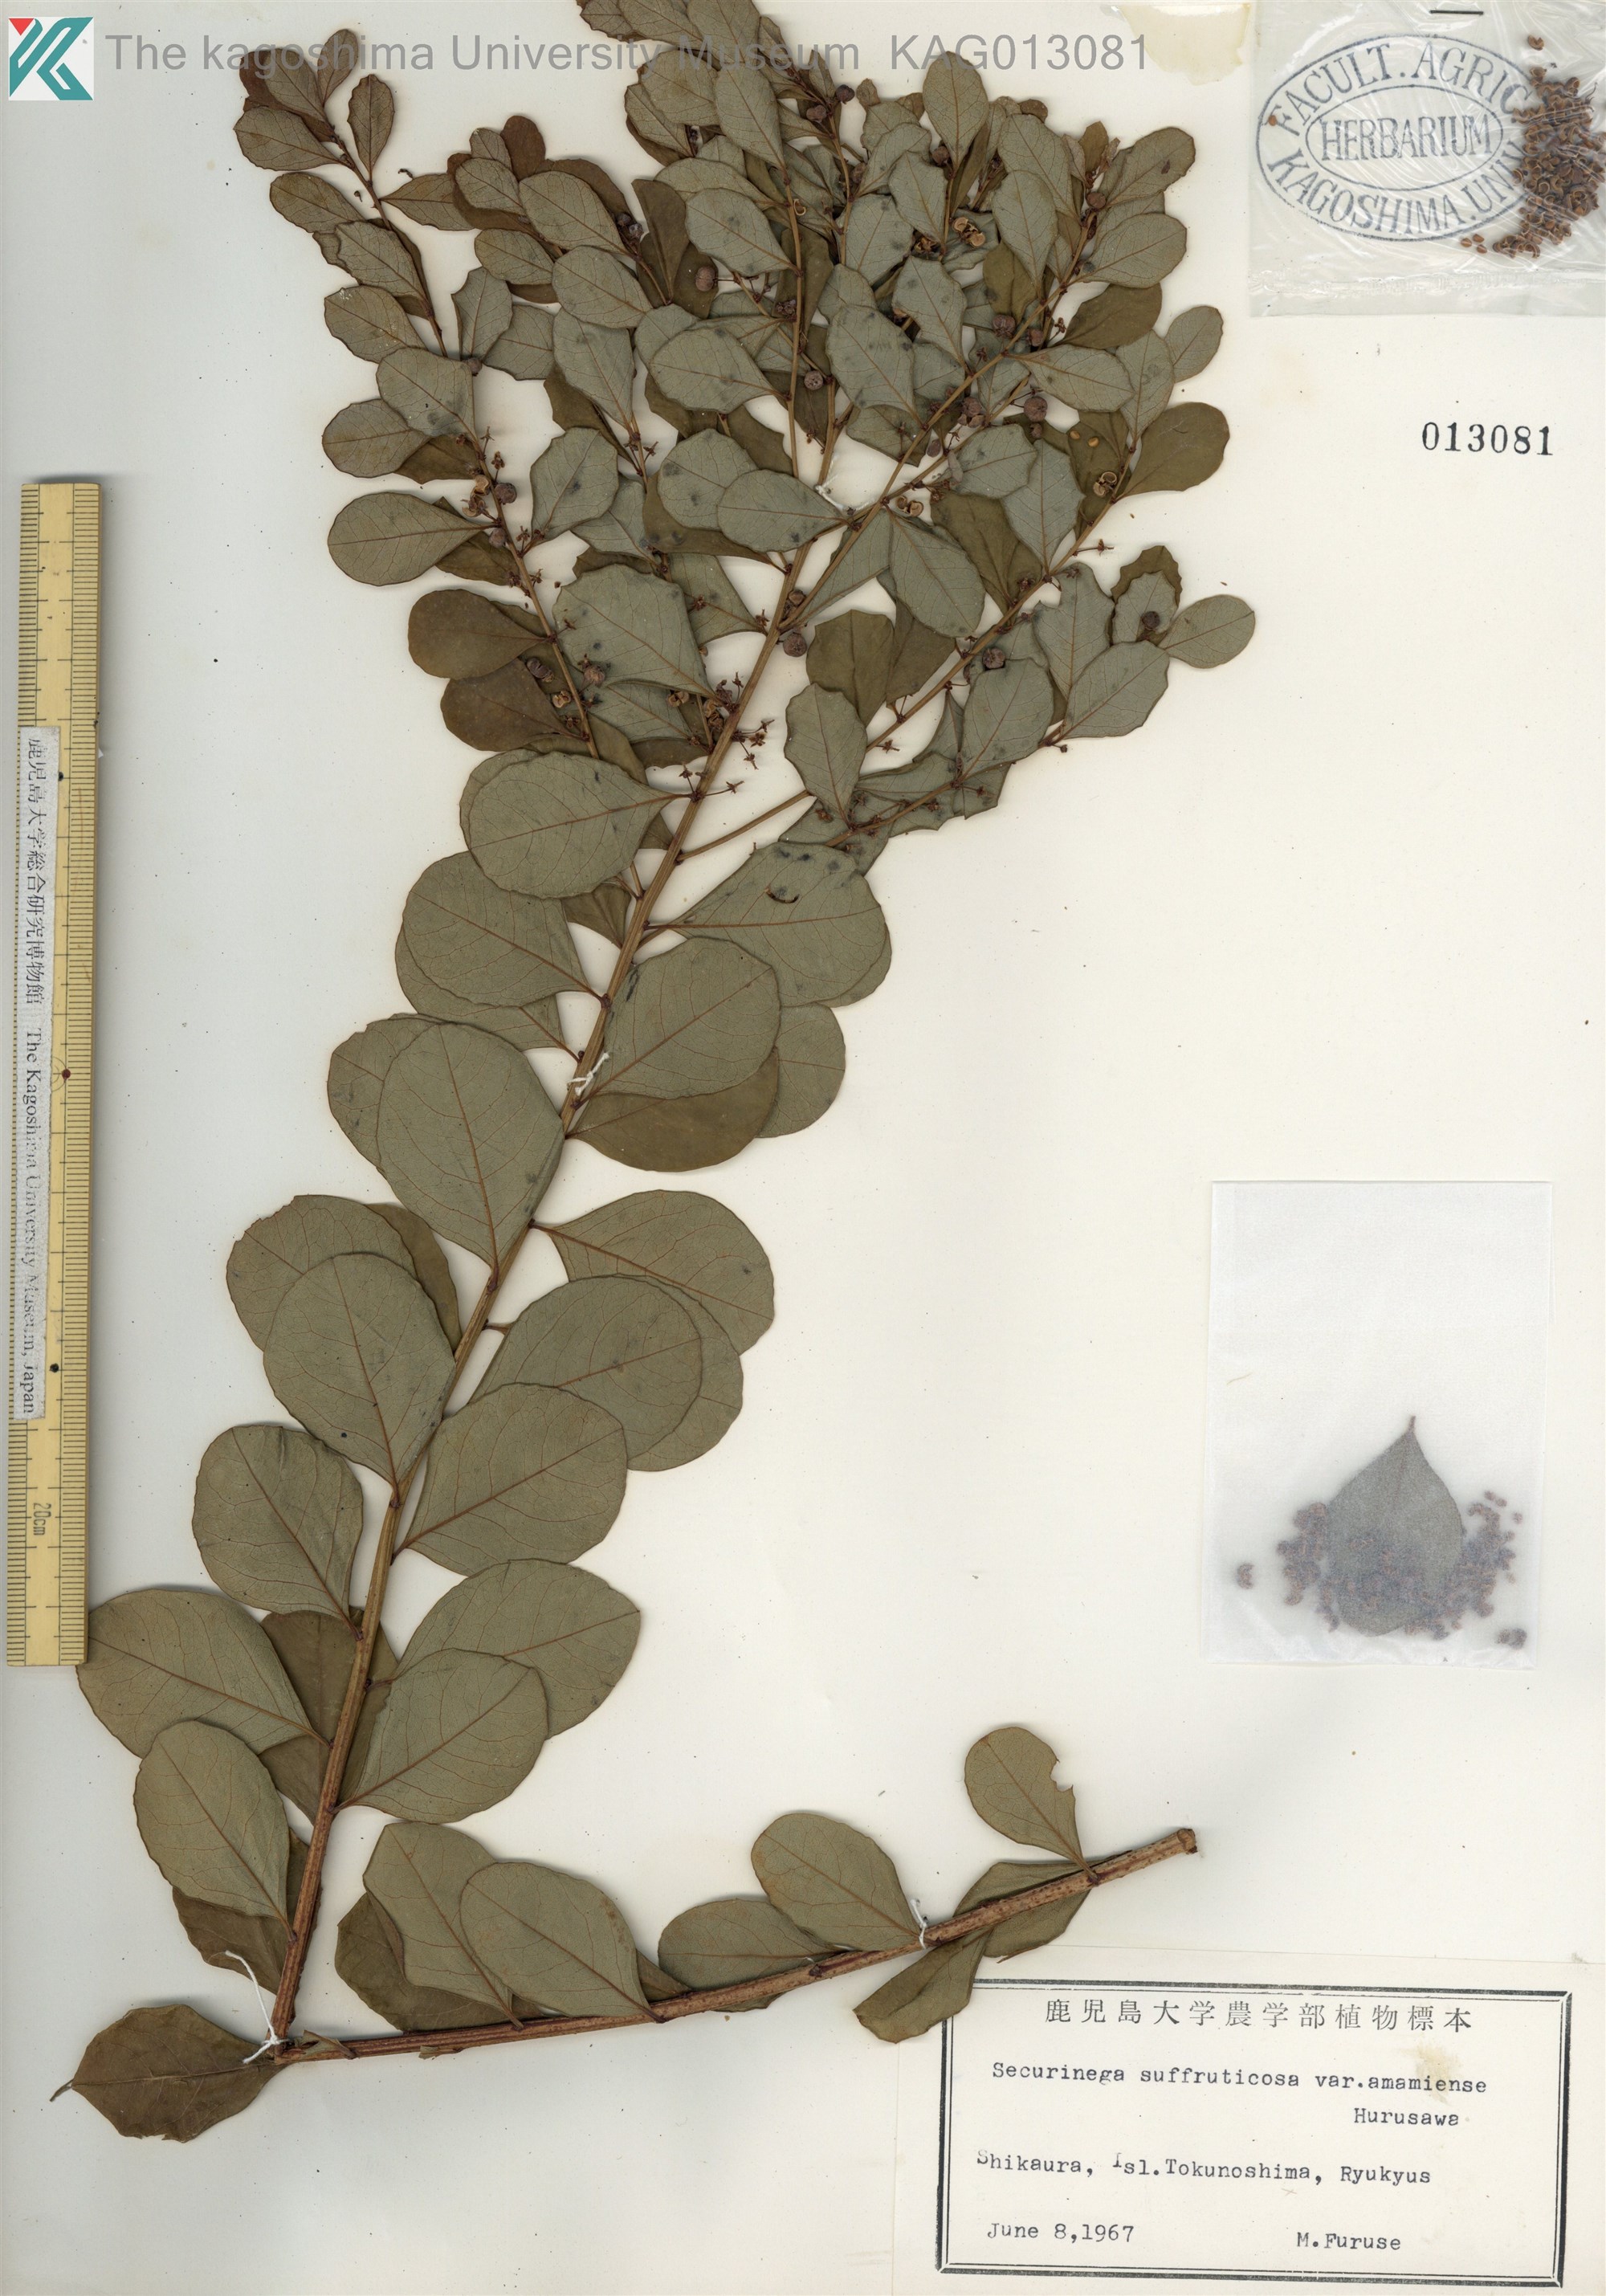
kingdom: Plantae
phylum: Tracheophyta
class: Magnoliopsida
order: Malpighiales
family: Phyllanthaceae
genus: Flueggea
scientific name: Flueggea suffruticosa
